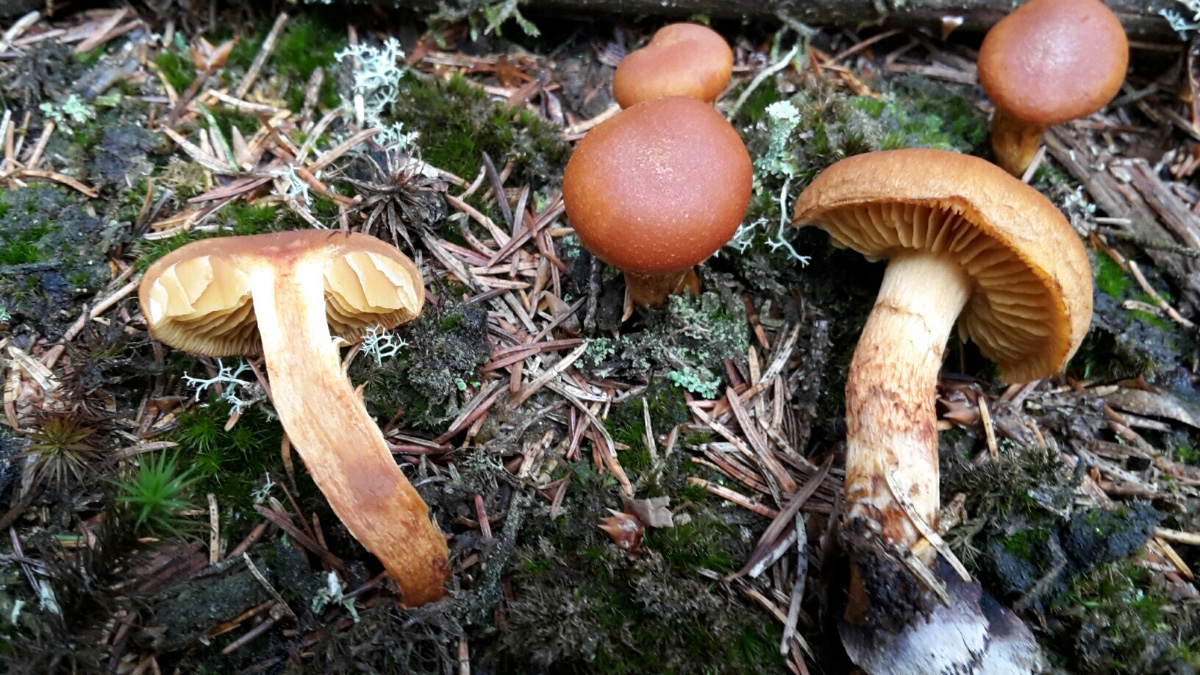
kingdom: Fungi
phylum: Basidiomycota
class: Agaricomycetes
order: Agaricales
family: Cortinariaceae
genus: Cortinarius
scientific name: Cortinarius
